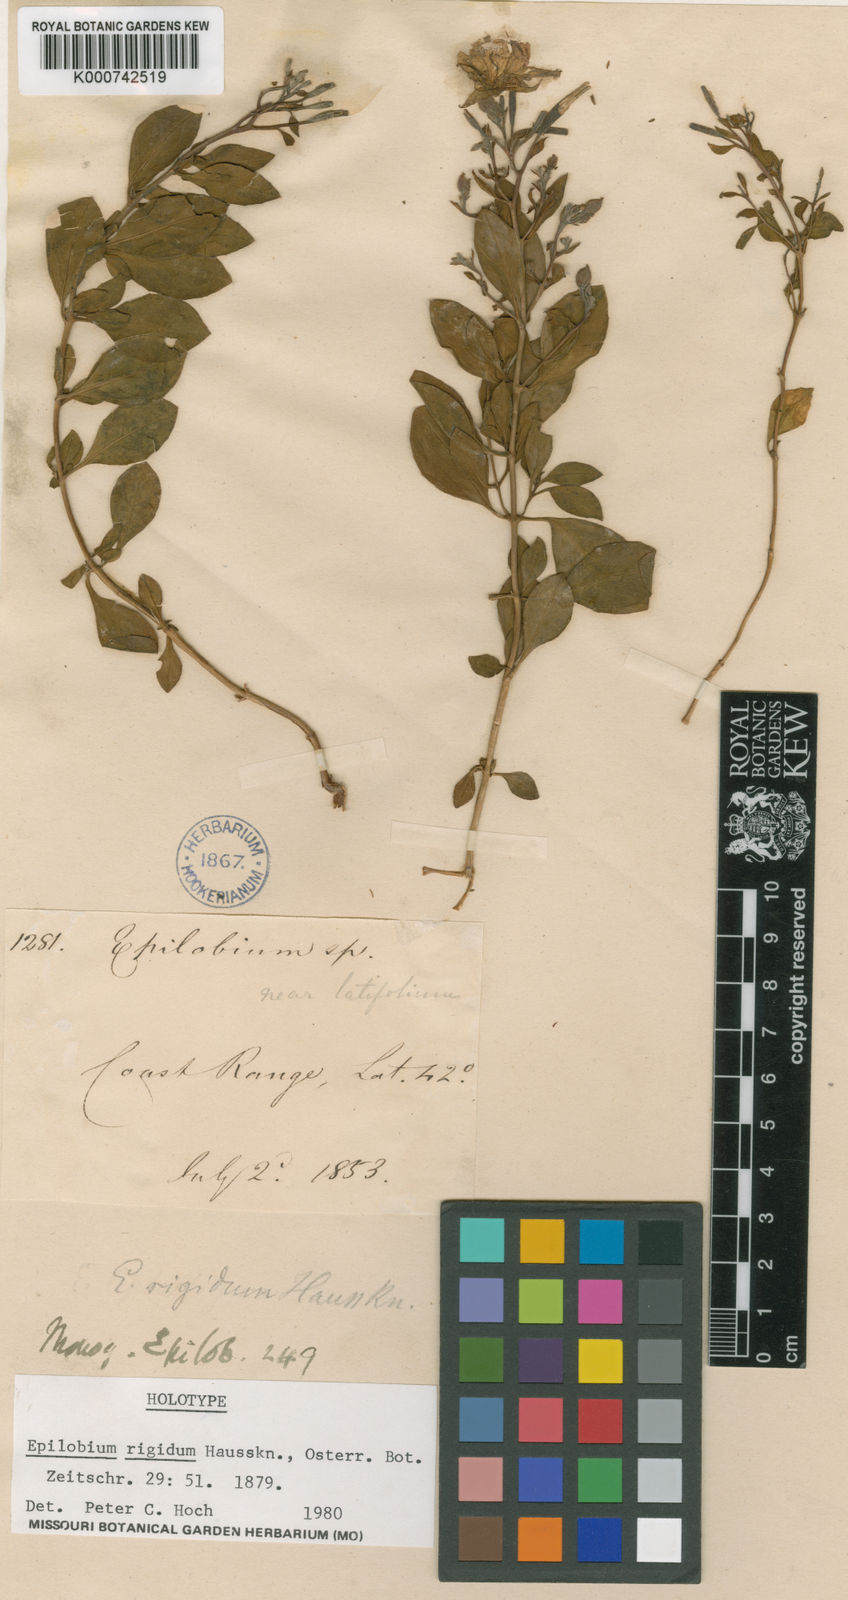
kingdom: Plantae
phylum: Tracheophyta
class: Magnoliopsida
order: Myrtales
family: Onagraceae
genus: Epilobium
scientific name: Epilobium rigidum
